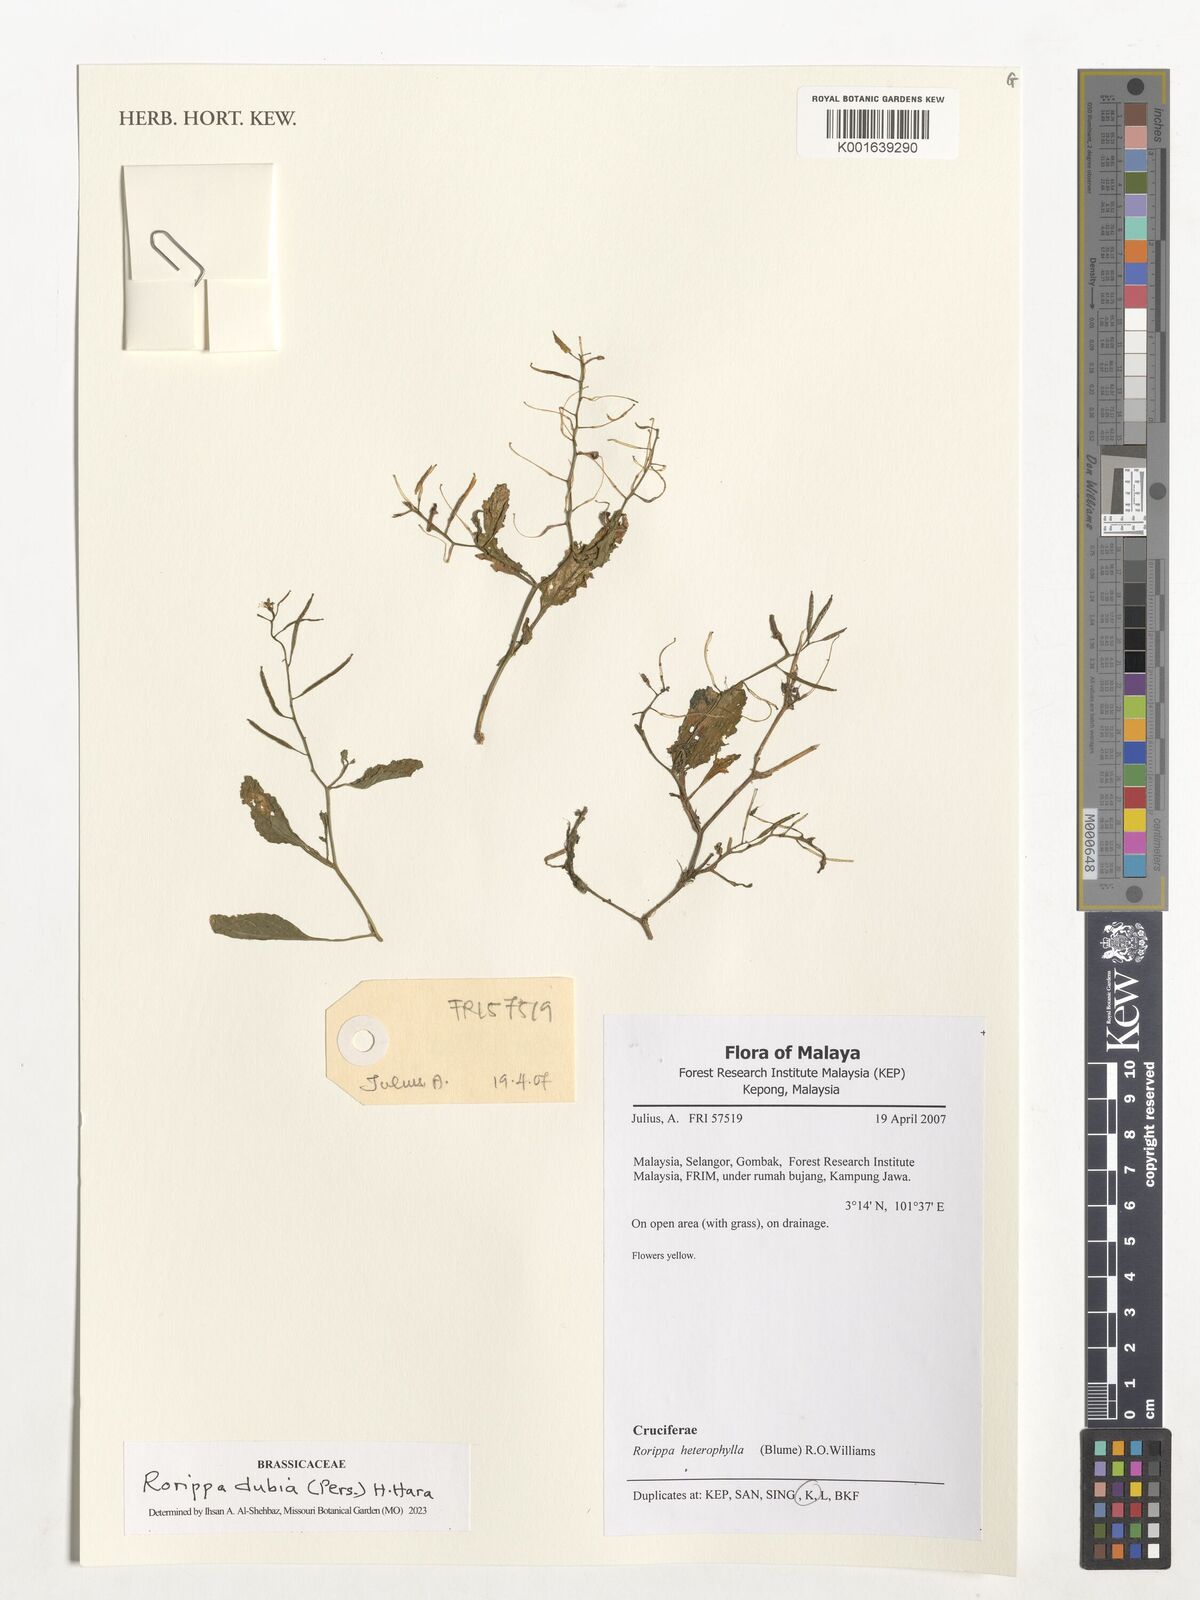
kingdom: Plantae
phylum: Tracheophyta
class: Magnoliopsida
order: Brassicales
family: Brassicaceae
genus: Rorippa
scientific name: Rorippa dubia
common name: Variableleaf yellowcress
